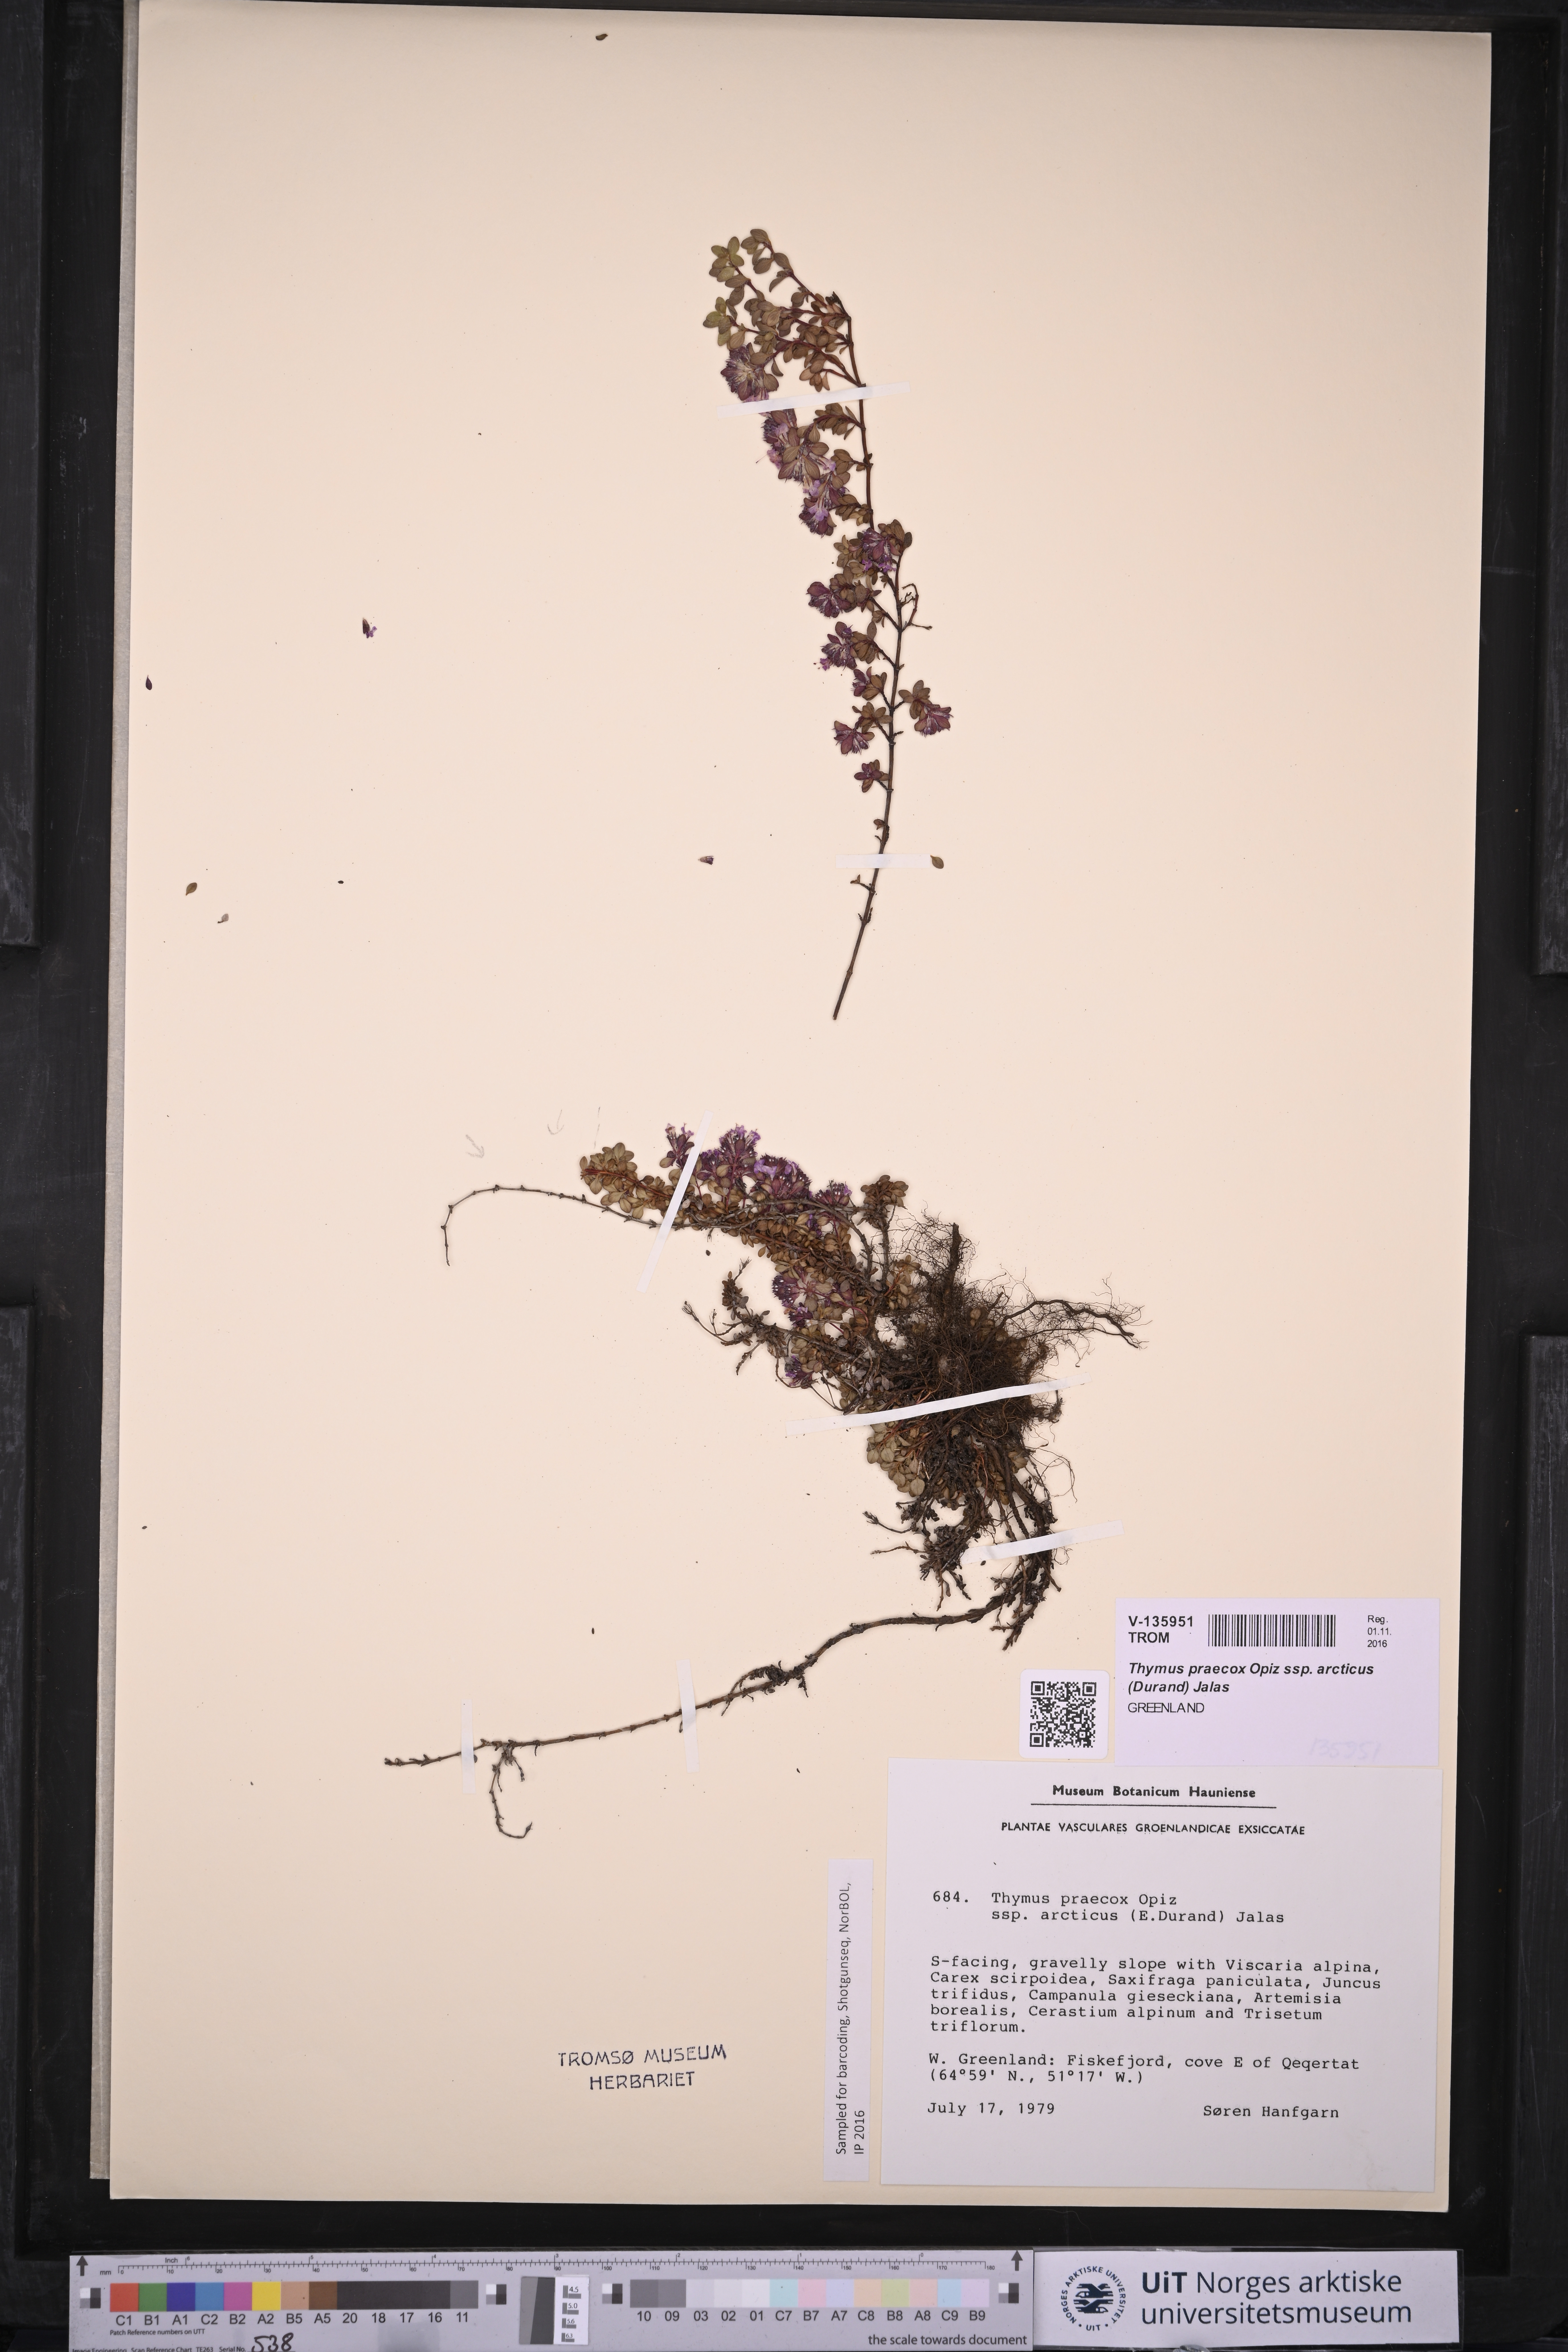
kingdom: Plantae
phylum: Tracheophyta
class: Magnoliopsida
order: Lamiales
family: Lamiaceae
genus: Thymus
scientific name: Thymus praecox
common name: Wild thyme
